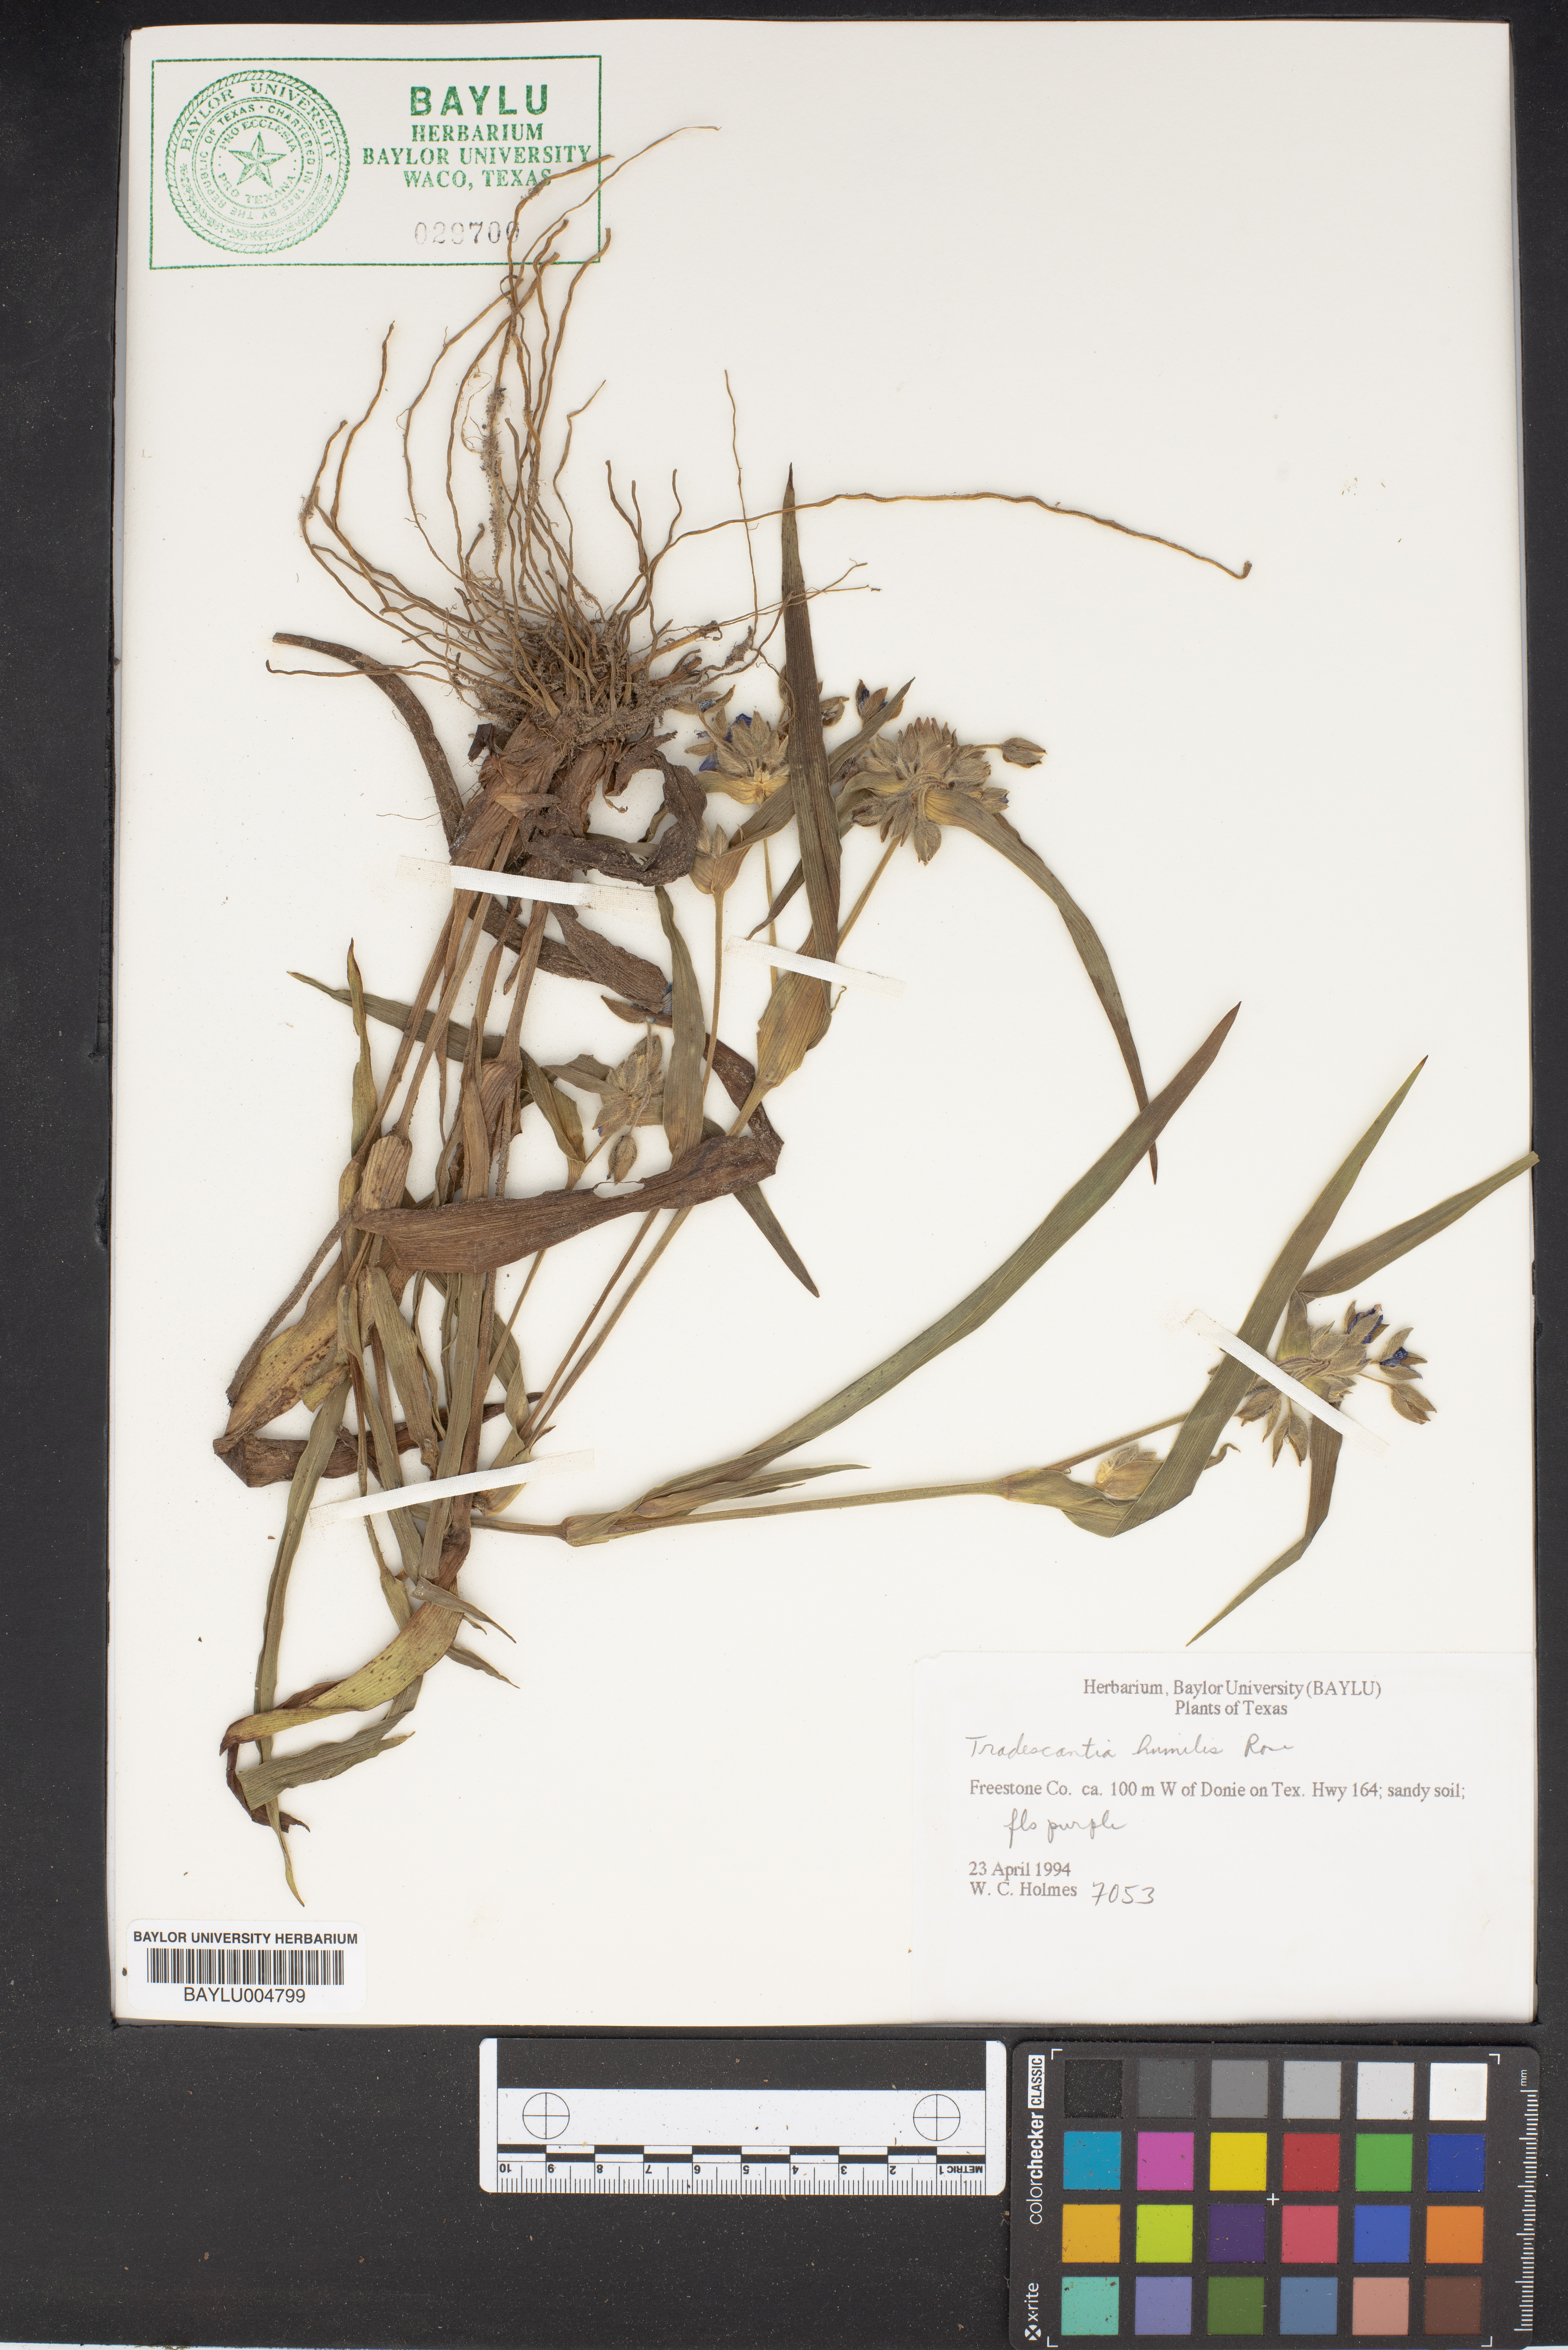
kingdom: Plantae
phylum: Tracheophyta
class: Liliopsida
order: Commelinales
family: Commelinaceae
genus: Tradescantia
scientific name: Tradescantia humilis
